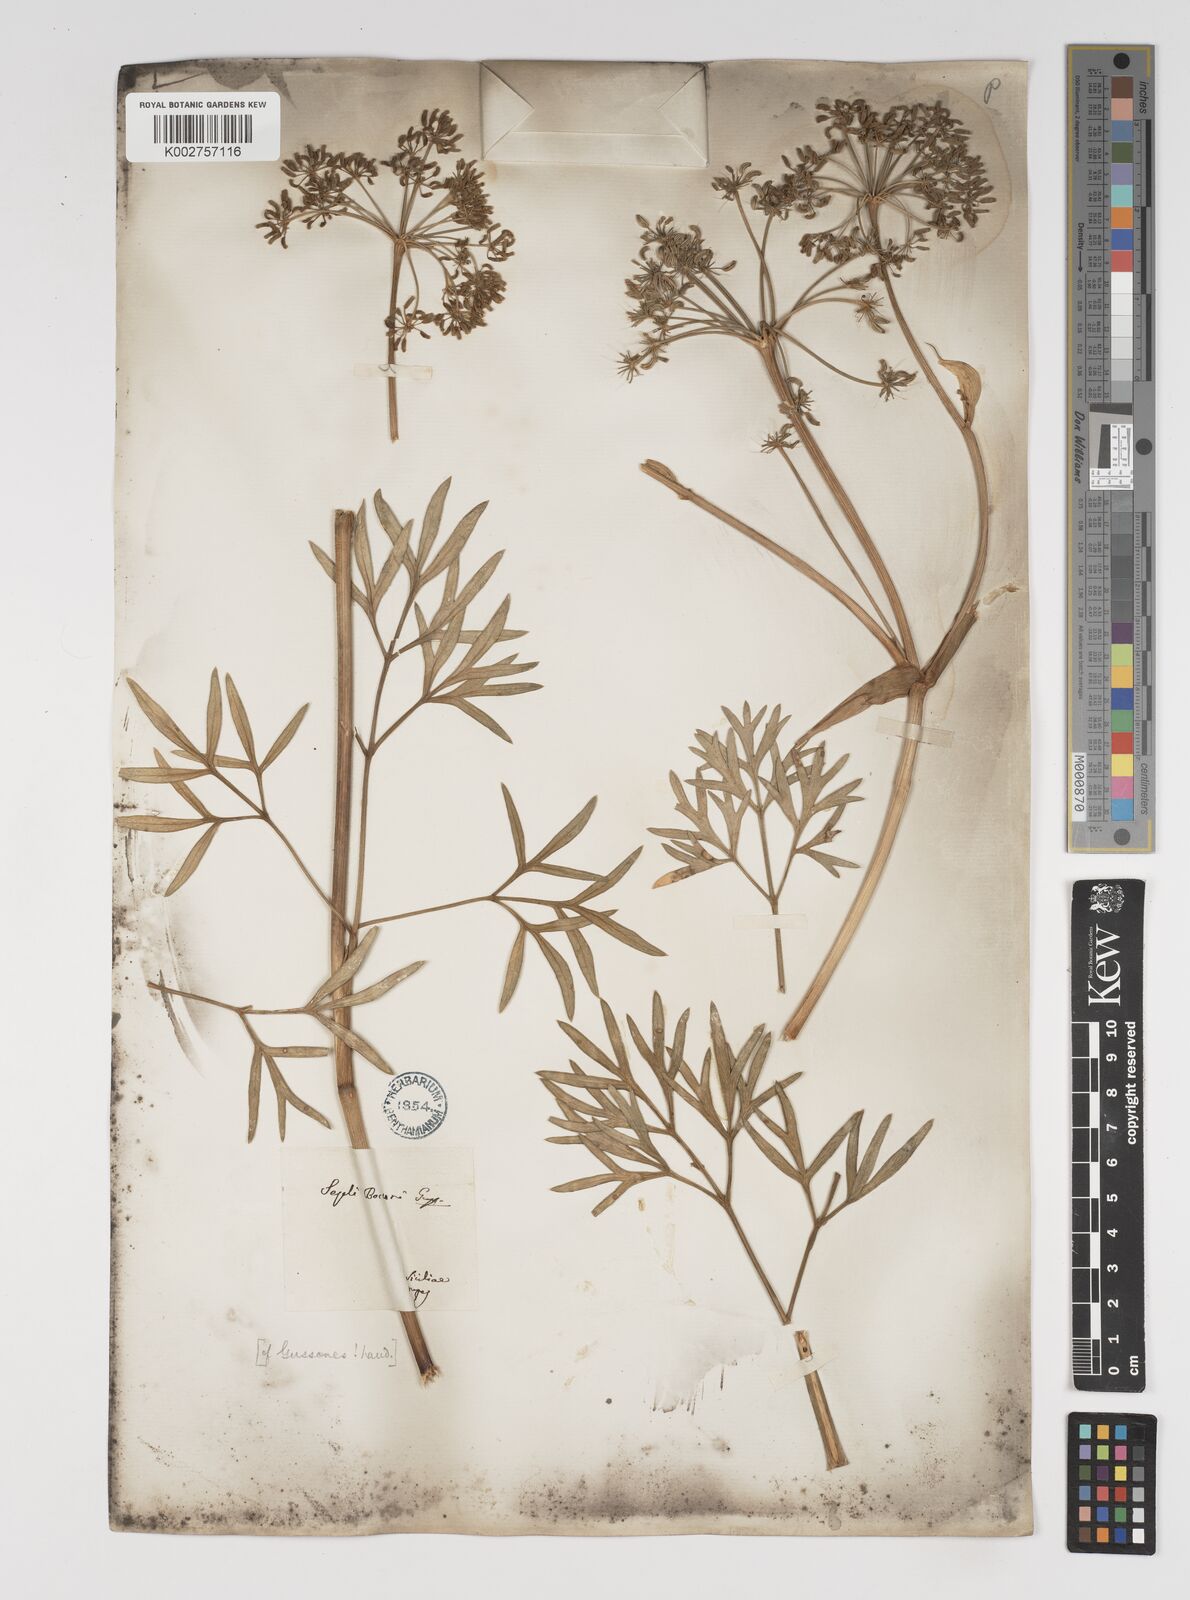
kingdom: Plantae
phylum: Tracheophyta
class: Magnoliopsida
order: Apiales
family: Apiaceae
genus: Seseli
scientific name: Seseli bocconei
